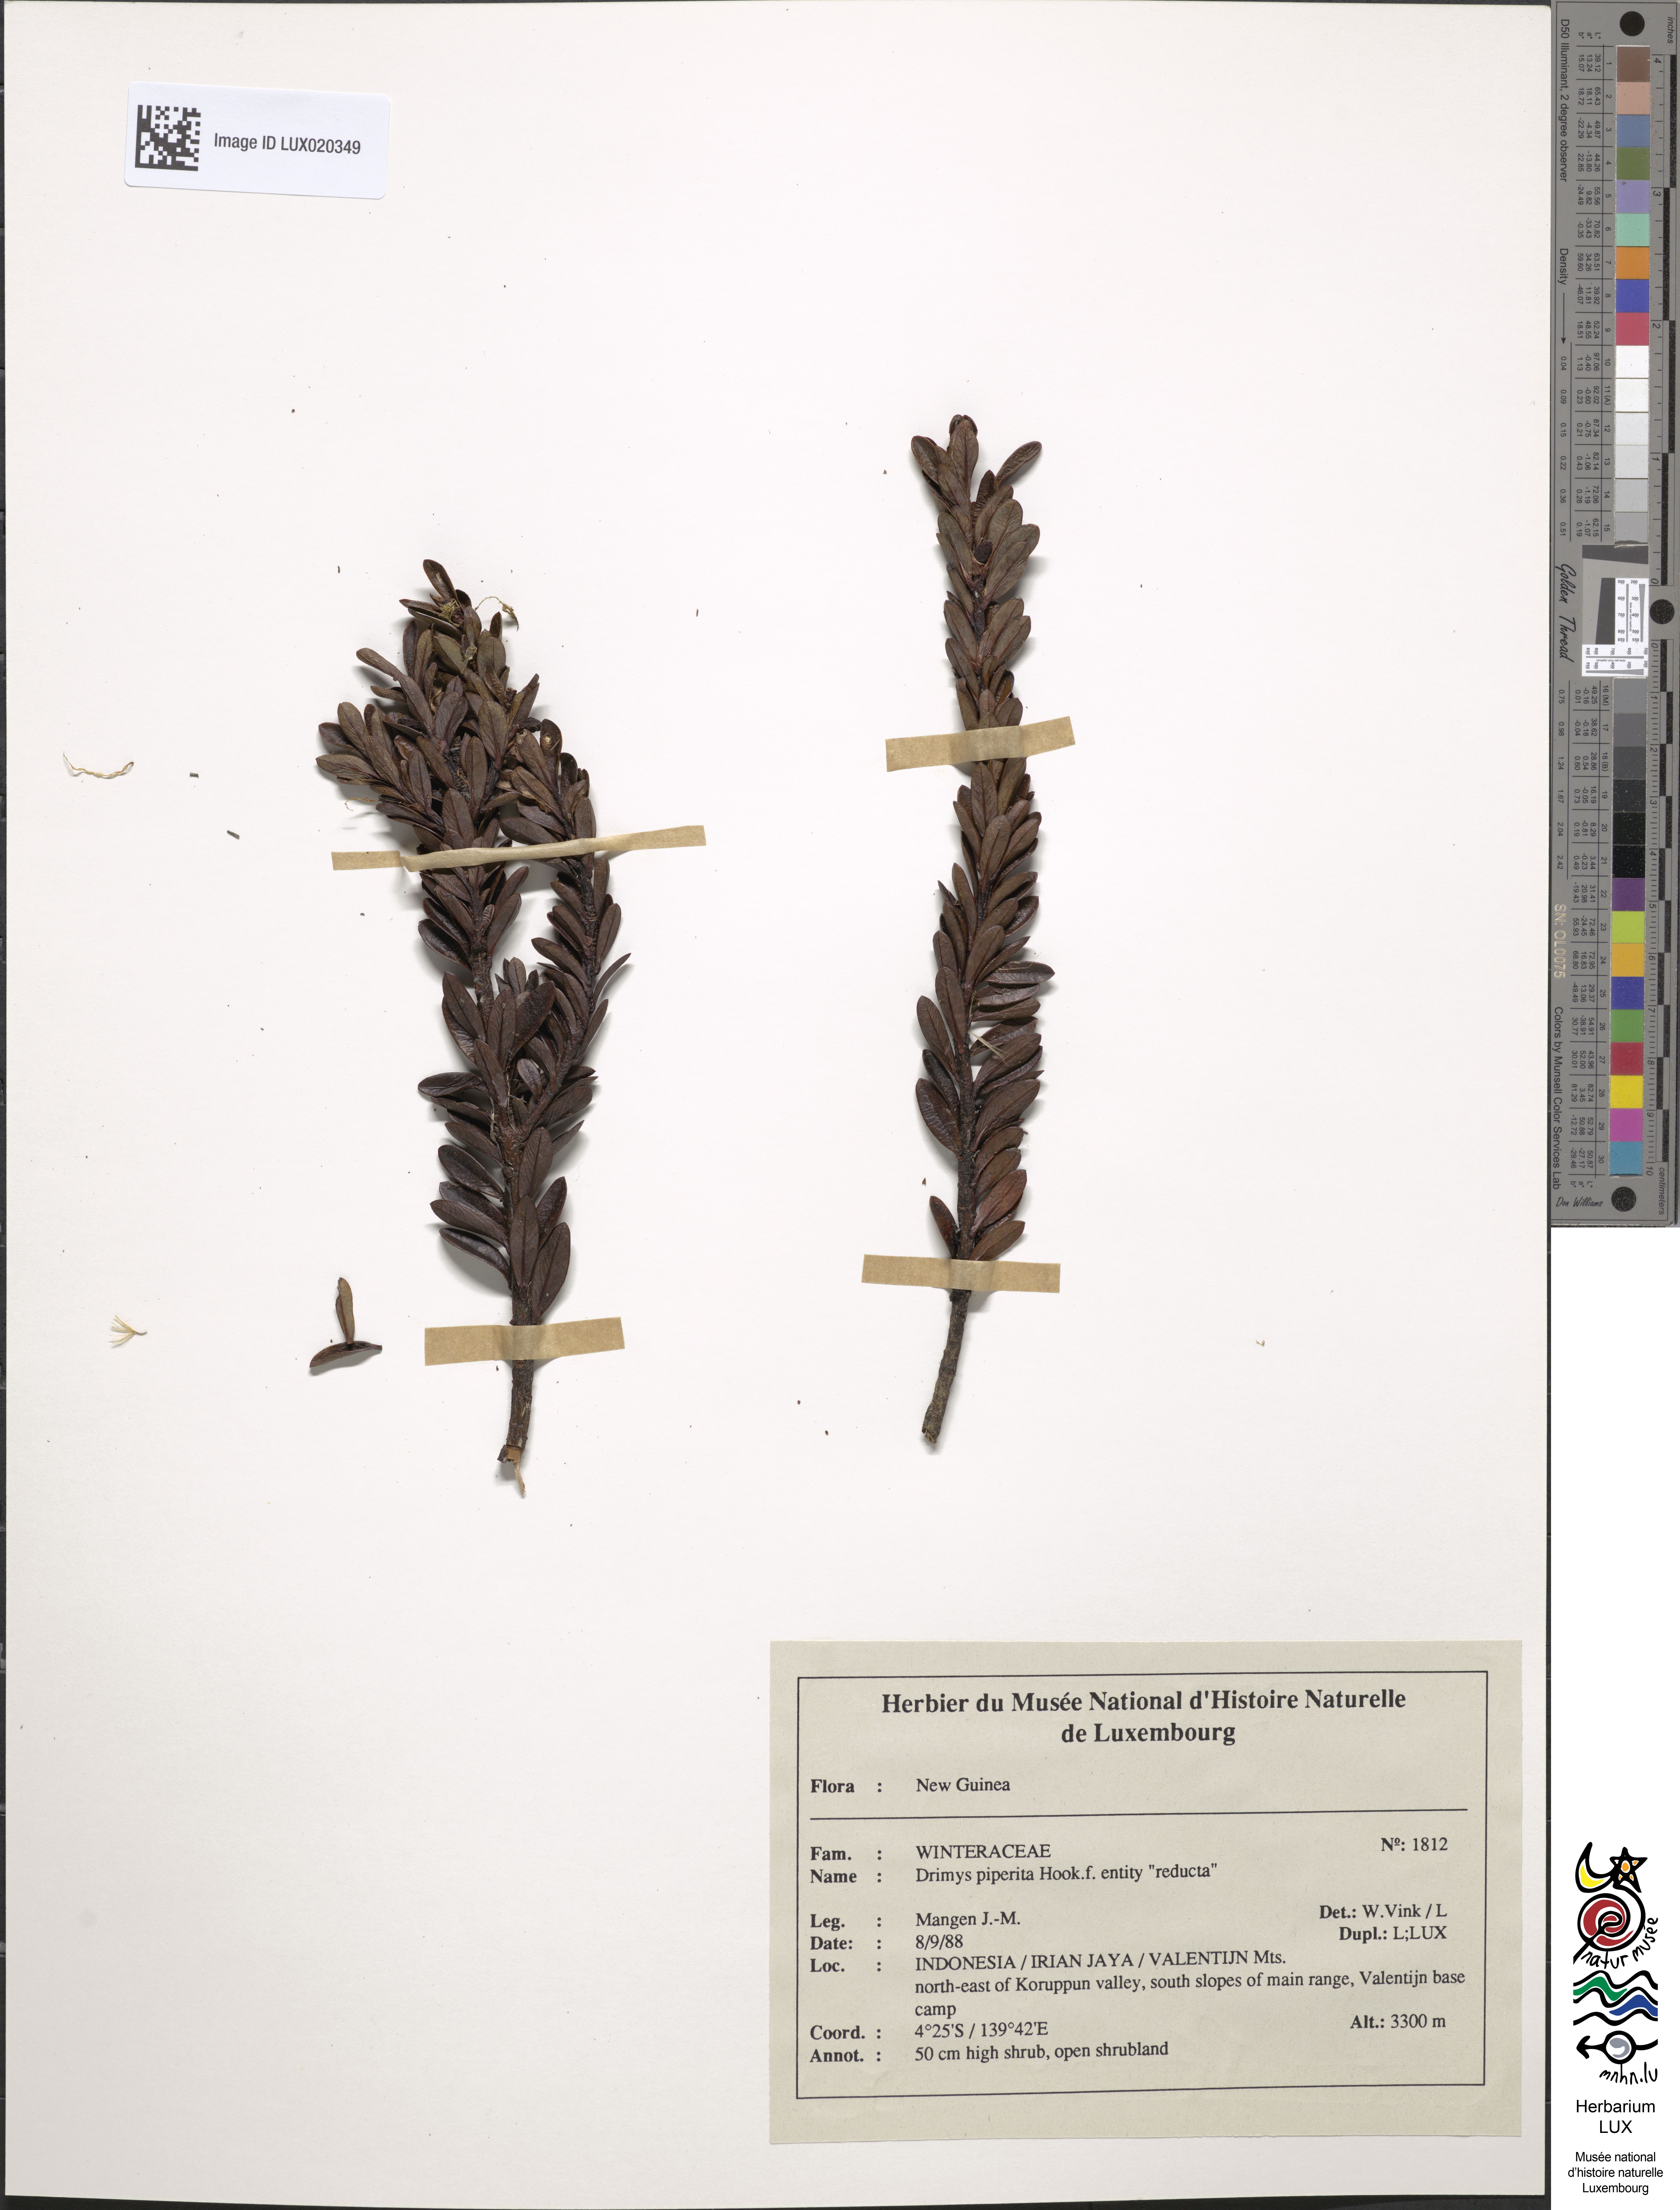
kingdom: Plantae
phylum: Tracheophyta
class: Magnoliopsida
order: Canellales
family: Winteraceae
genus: Drimys
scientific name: Drimys piperita
